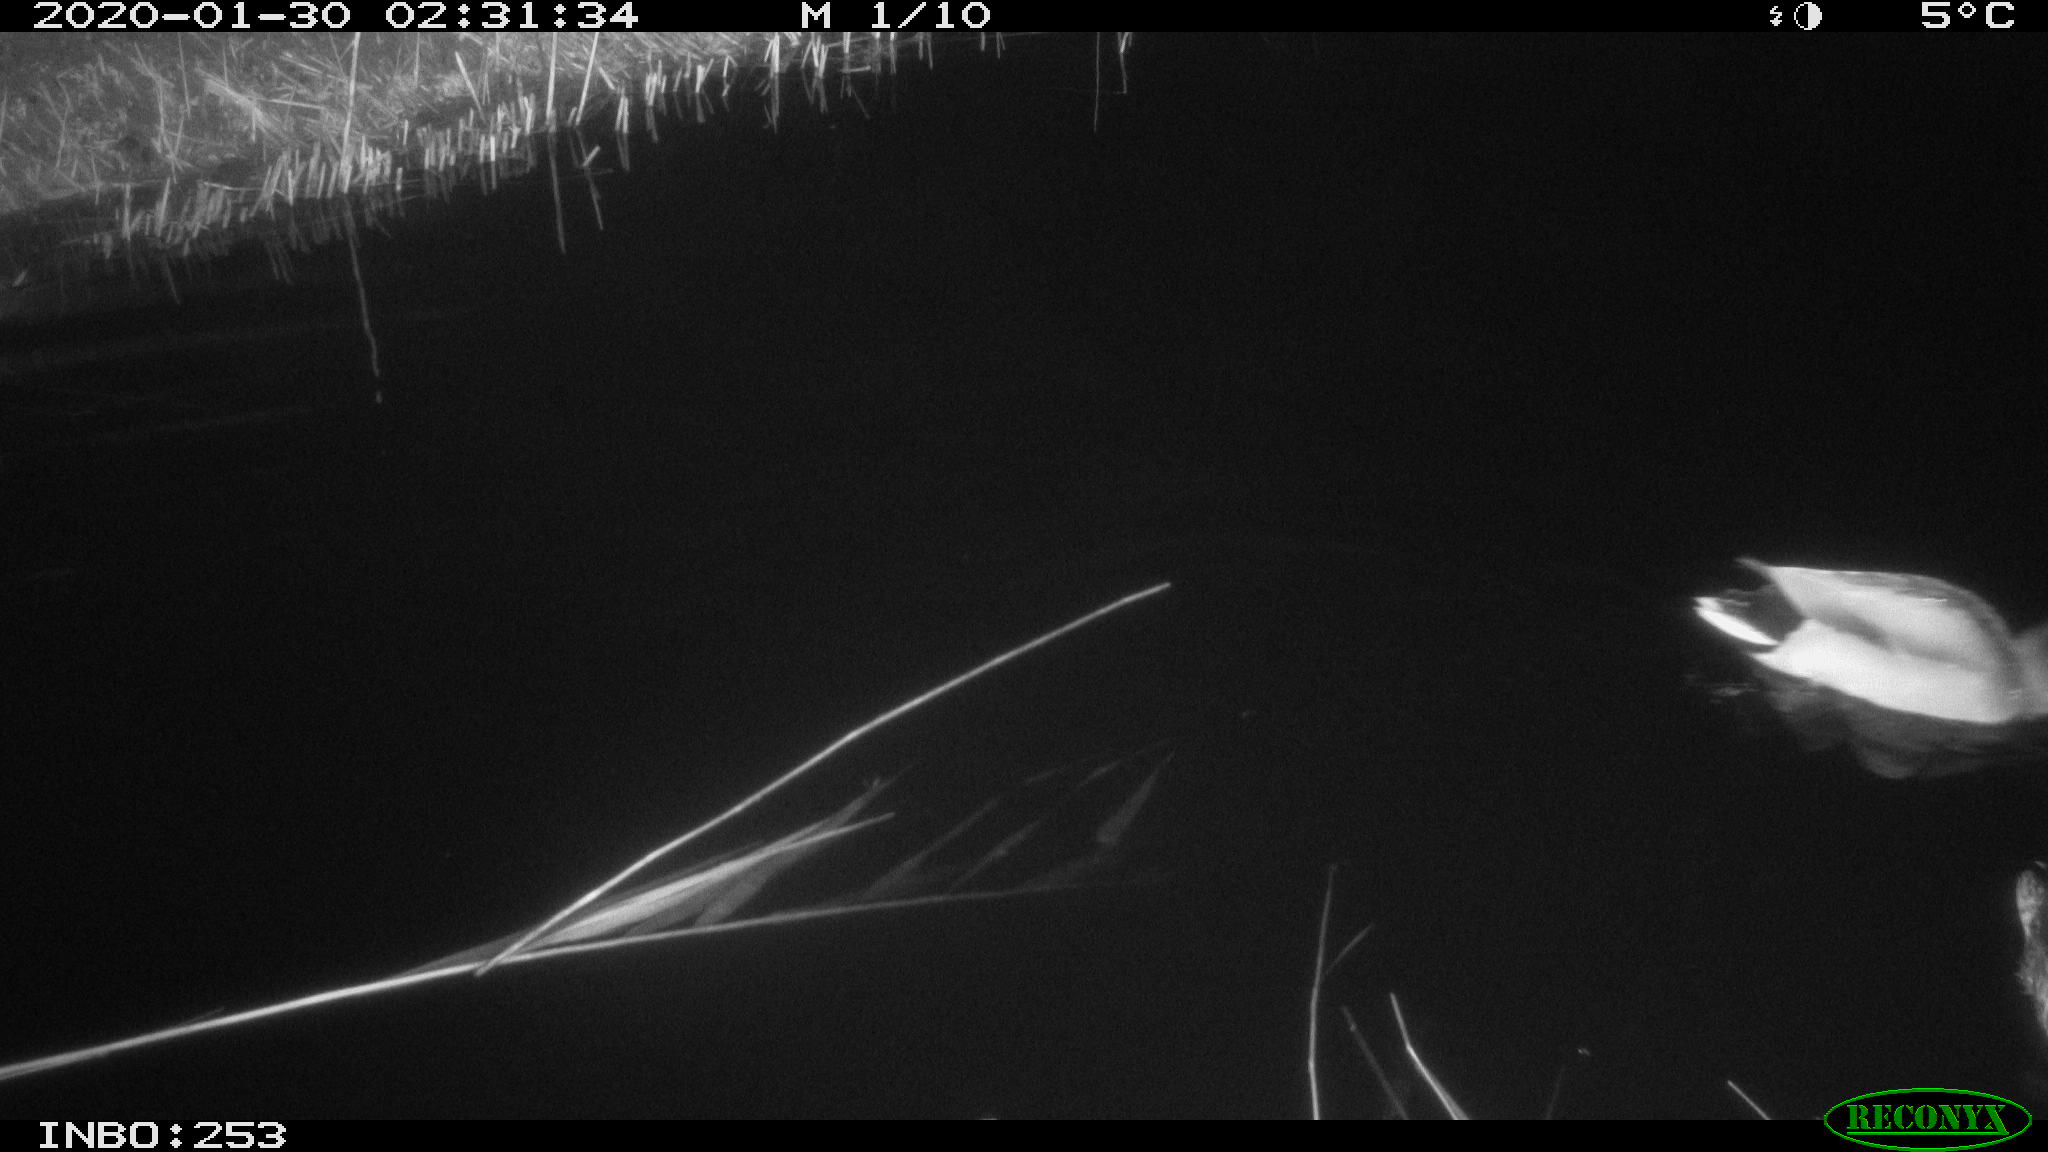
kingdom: Animalia
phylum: Chordata
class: Aves
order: Anseriformes
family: Anatidae
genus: Anas
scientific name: Anas platyrhynchos
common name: Mallard
